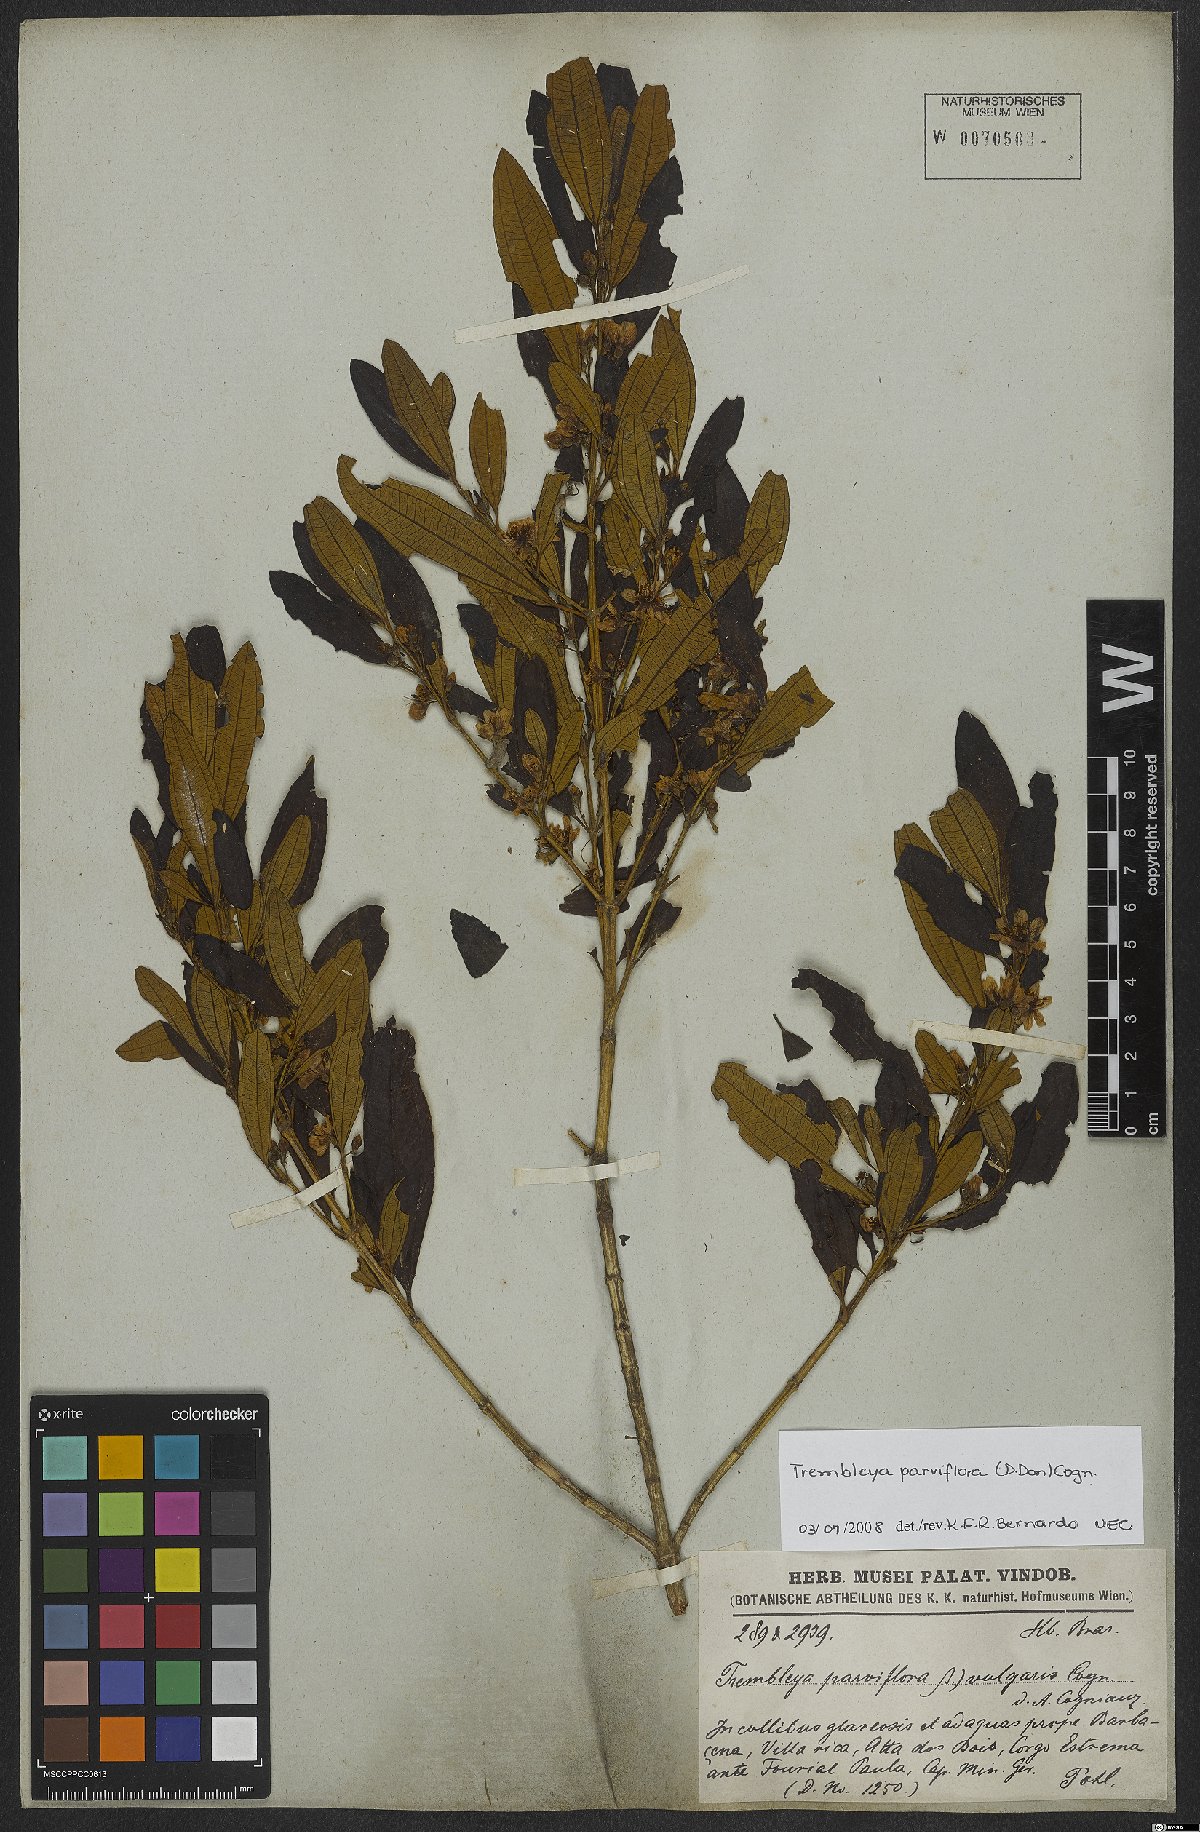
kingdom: Plantae
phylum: Tracheophyta
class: Magnoliopsida
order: Myrtales
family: Melastomataceae
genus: Microlicia
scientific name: Microlicia parviflora
